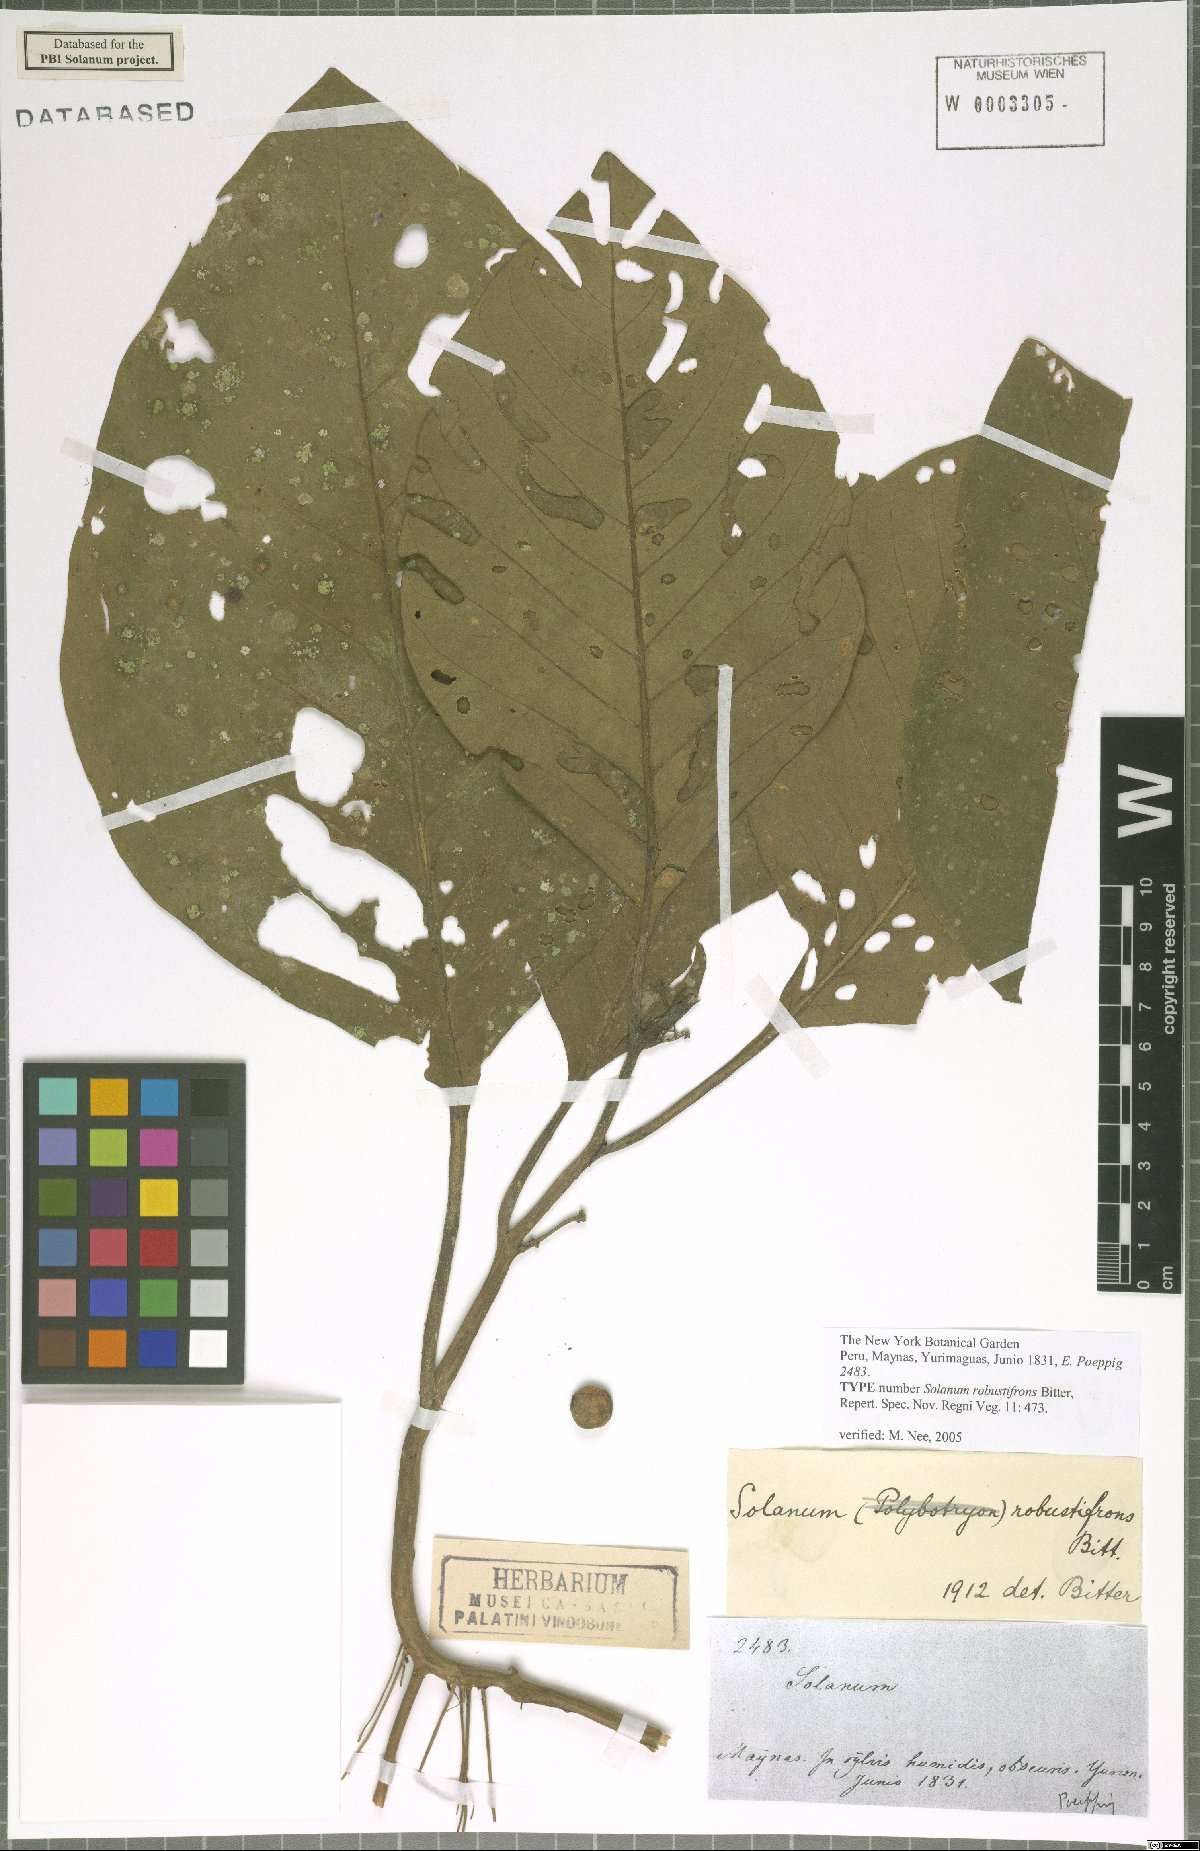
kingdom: Plantae
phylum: Tracheophyta
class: Magnoliopsida
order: Solanales
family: Solanaceae
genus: Solanum
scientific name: Solanum robustifrons
